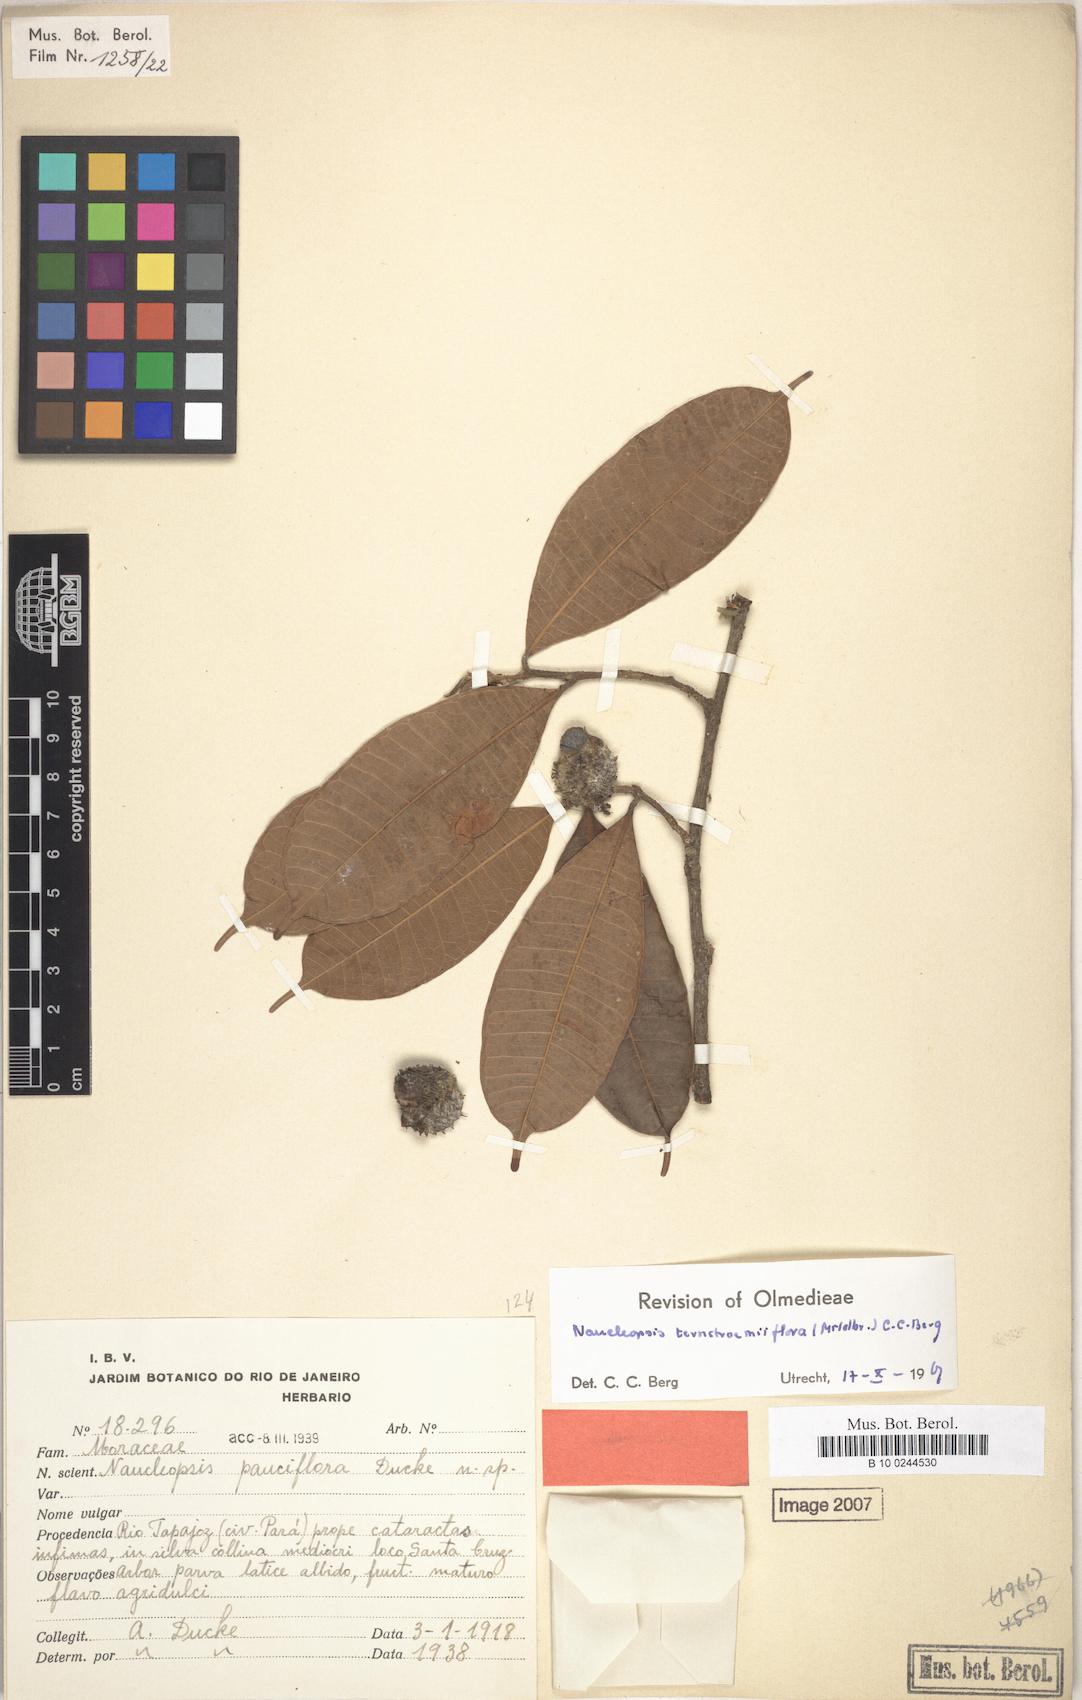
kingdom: Plantae
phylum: Tracheophyta
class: Magnoliopsida
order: Rosales
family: Moraceae
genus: Naucleopsis
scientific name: Naucleopsis ternstroemiiflora
